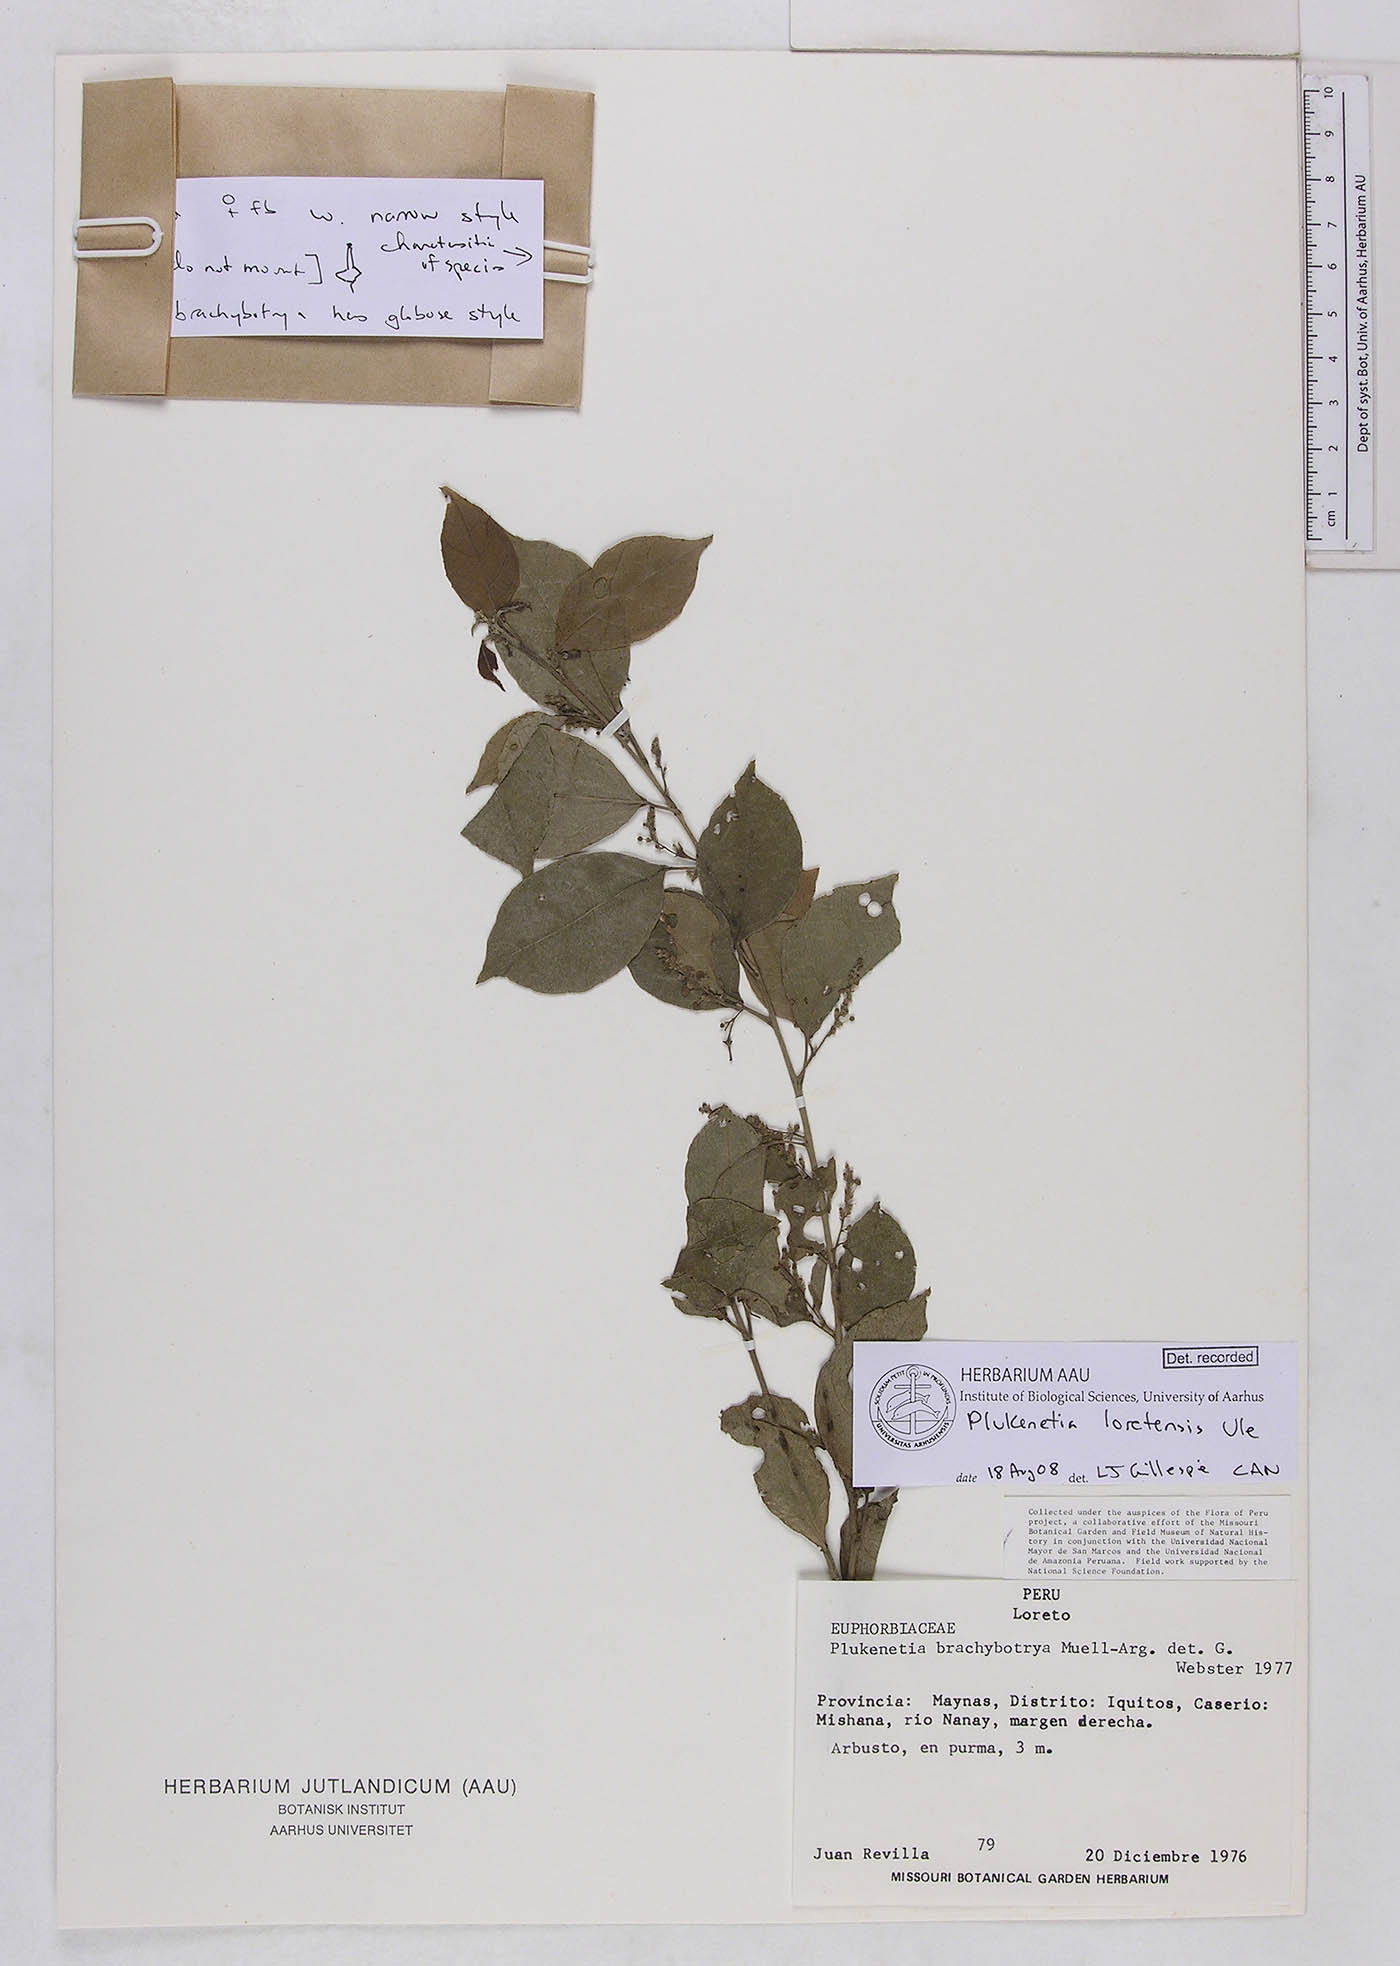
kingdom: Plantae
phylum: Tracheophyta
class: Magnoliopsida
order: Malpighiales
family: Euphorbiaceae
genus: Plukenetia
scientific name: Plukenetia loretensis
